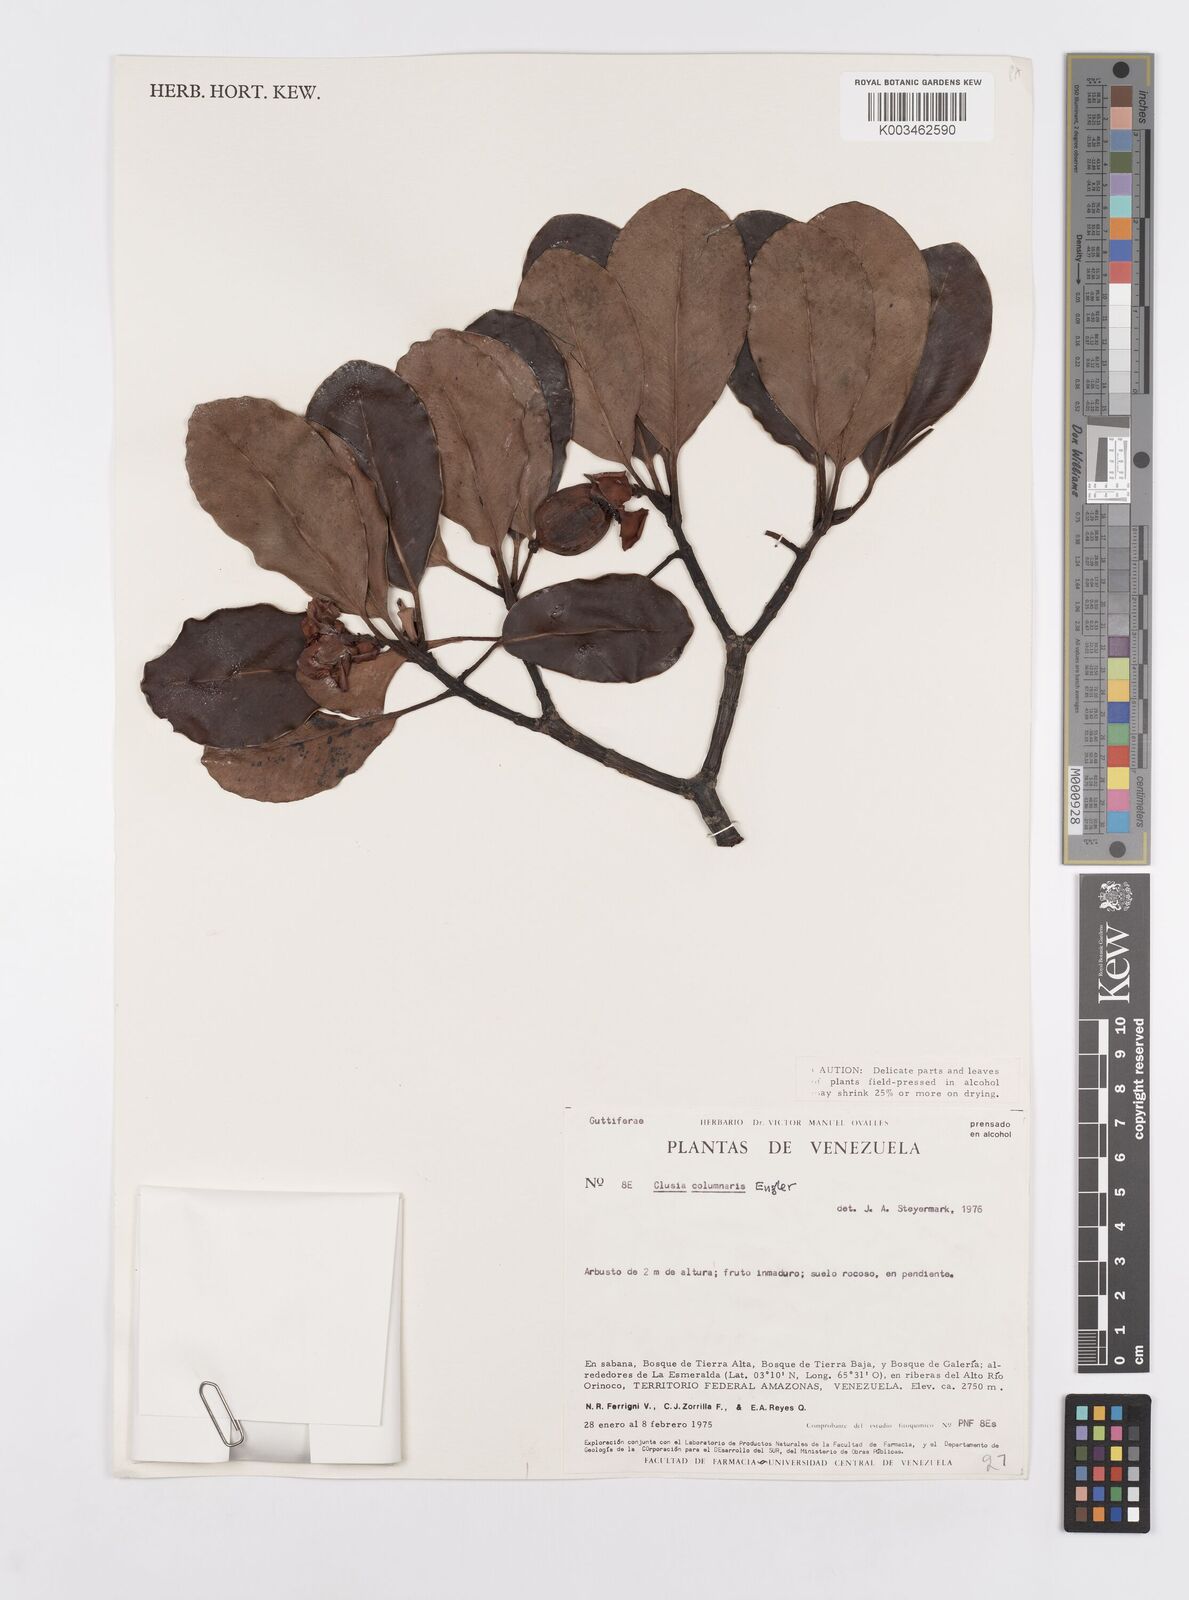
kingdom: Plantae
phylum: Tracheophyta
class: Magnoliopsida
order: Malpighiales
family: Clusiaceae
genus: Clusia
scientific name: Clusia columnaris
